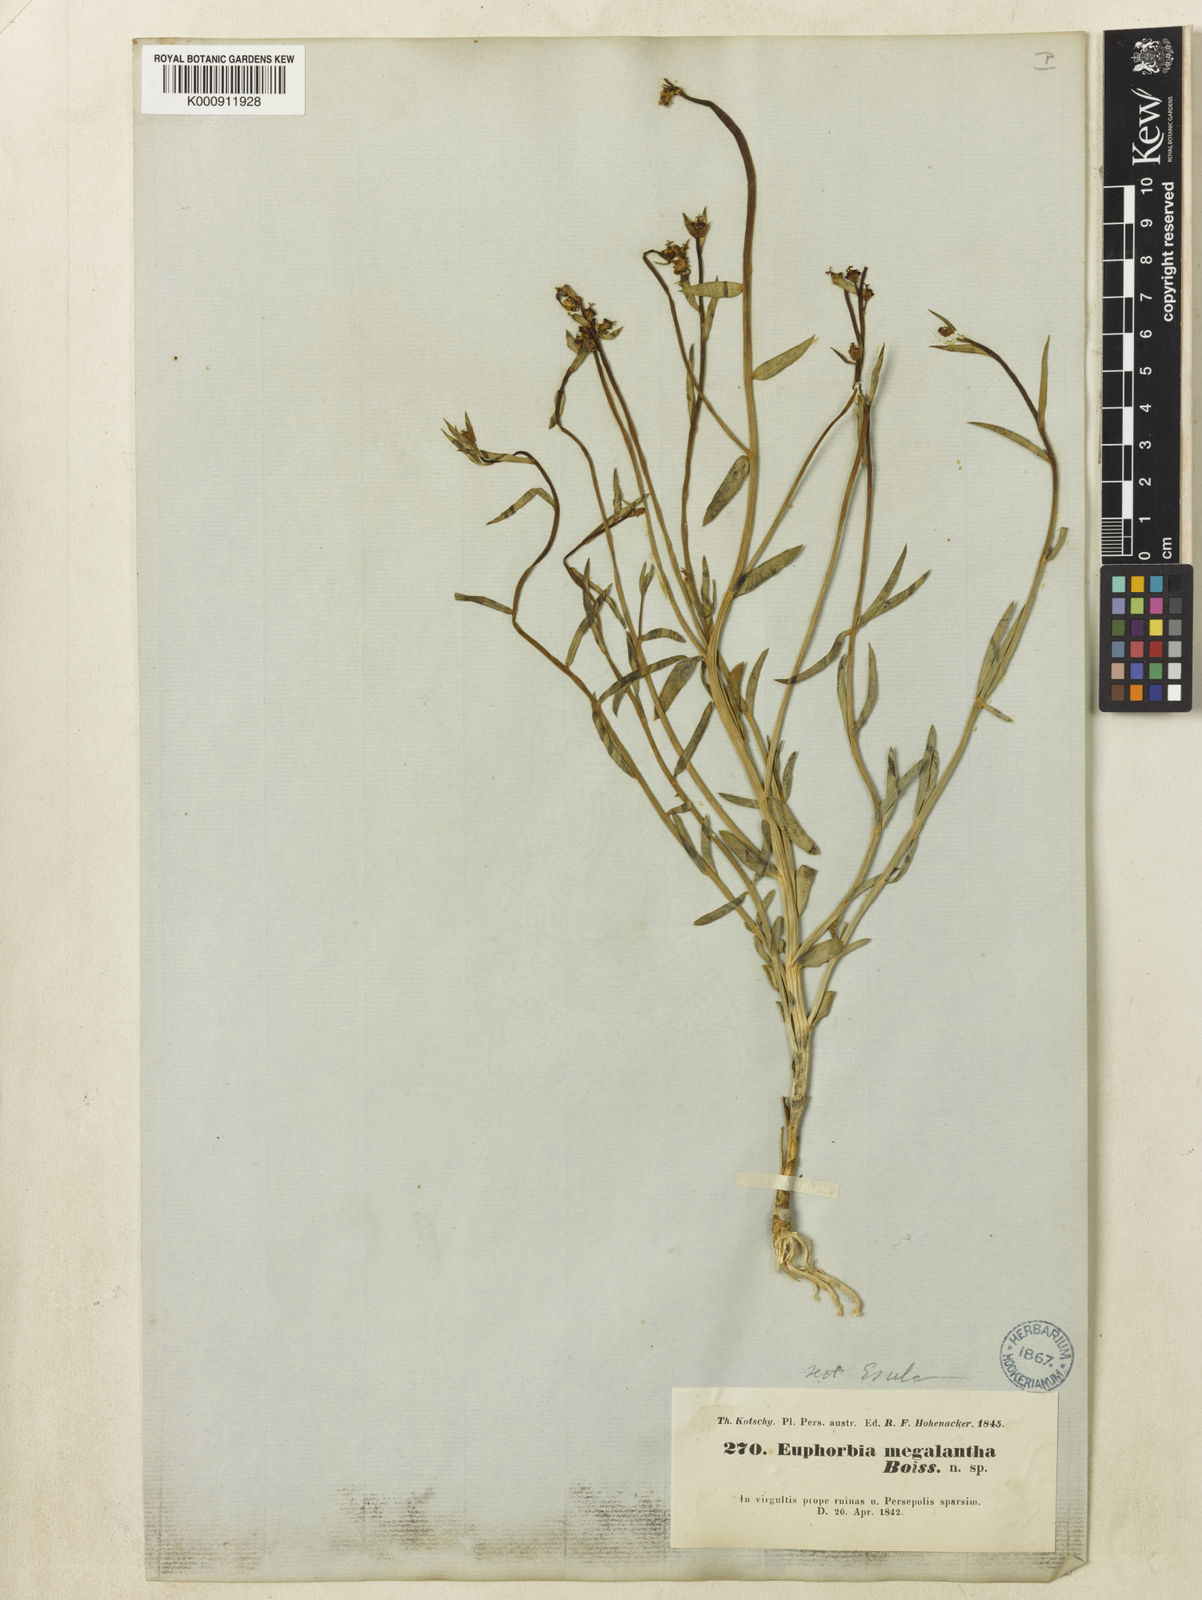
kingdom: Plantae
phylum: Tracheophyta
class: Magnoliopsida
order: Malpighiales
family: Euphorbiaceae
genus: Euphorbia
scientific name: Euphorbia heteradena
